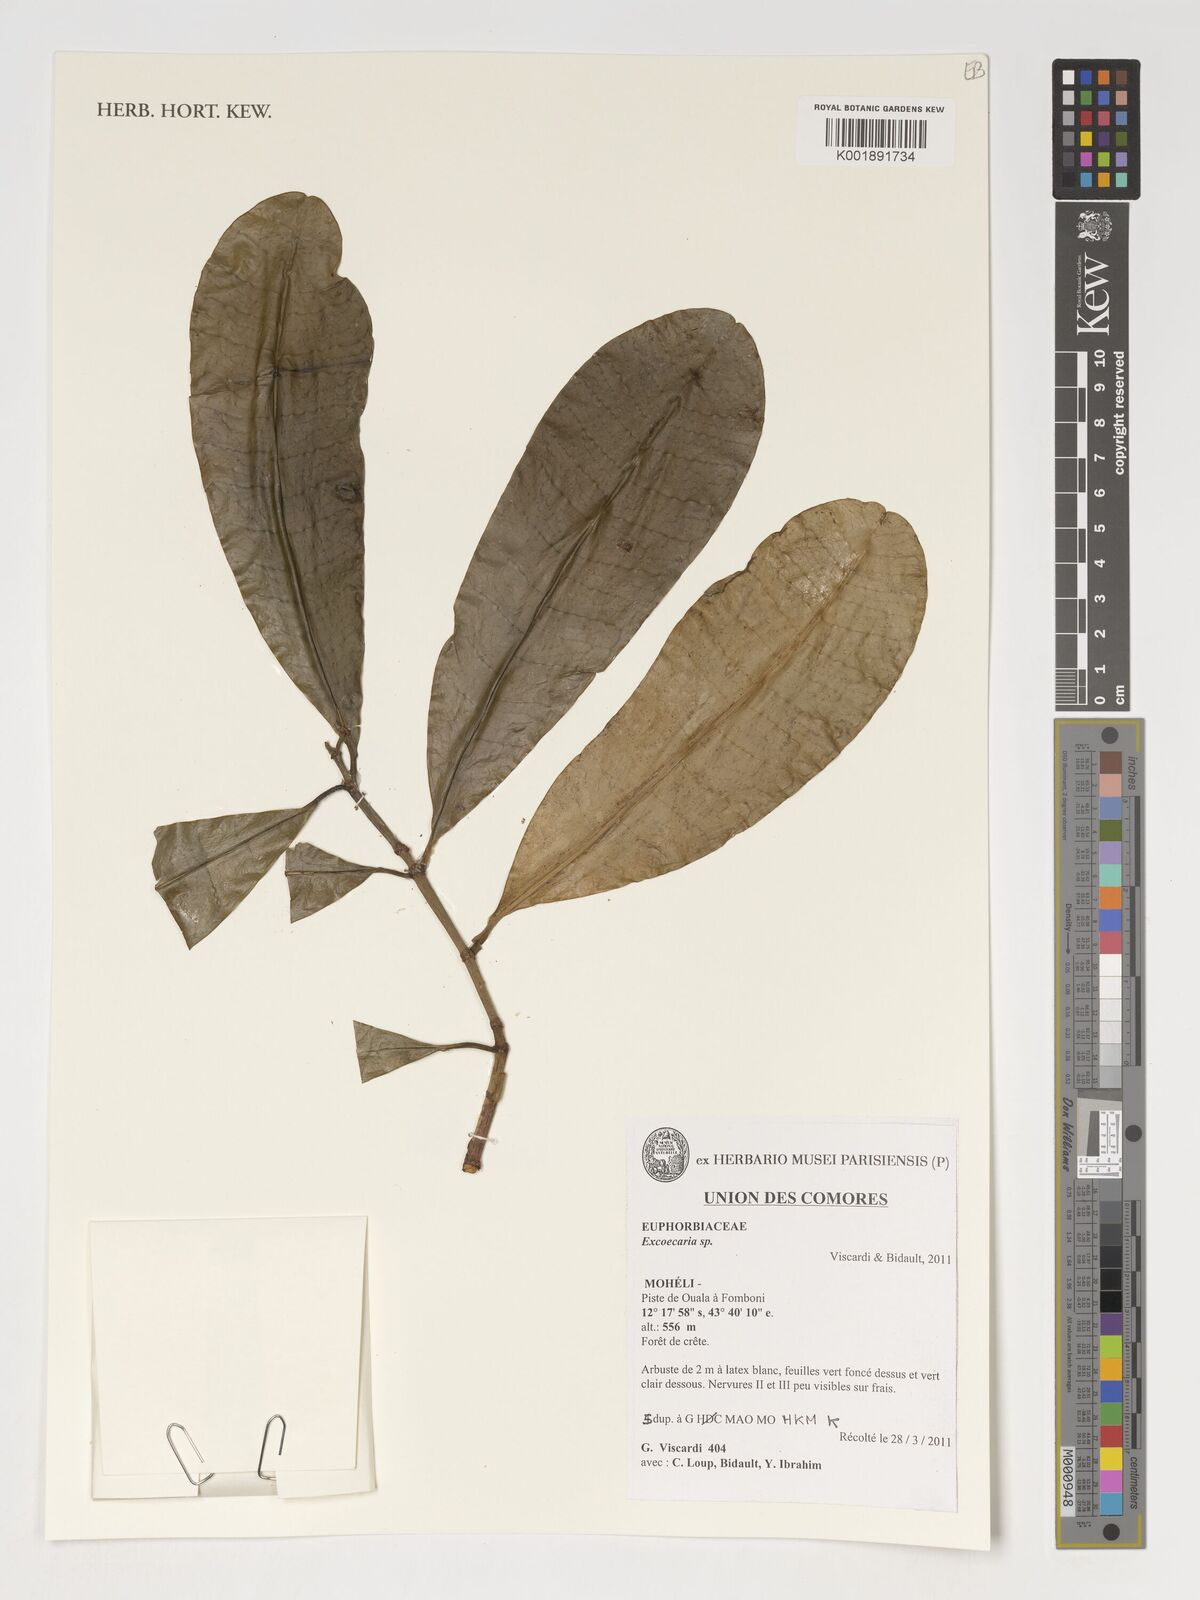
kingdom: Plantae
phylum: Tracheophyta
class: Magnoliopsida
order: Malpighiales
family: Euphorbiaceae
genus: Excoecaria
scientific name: Excoecaria
